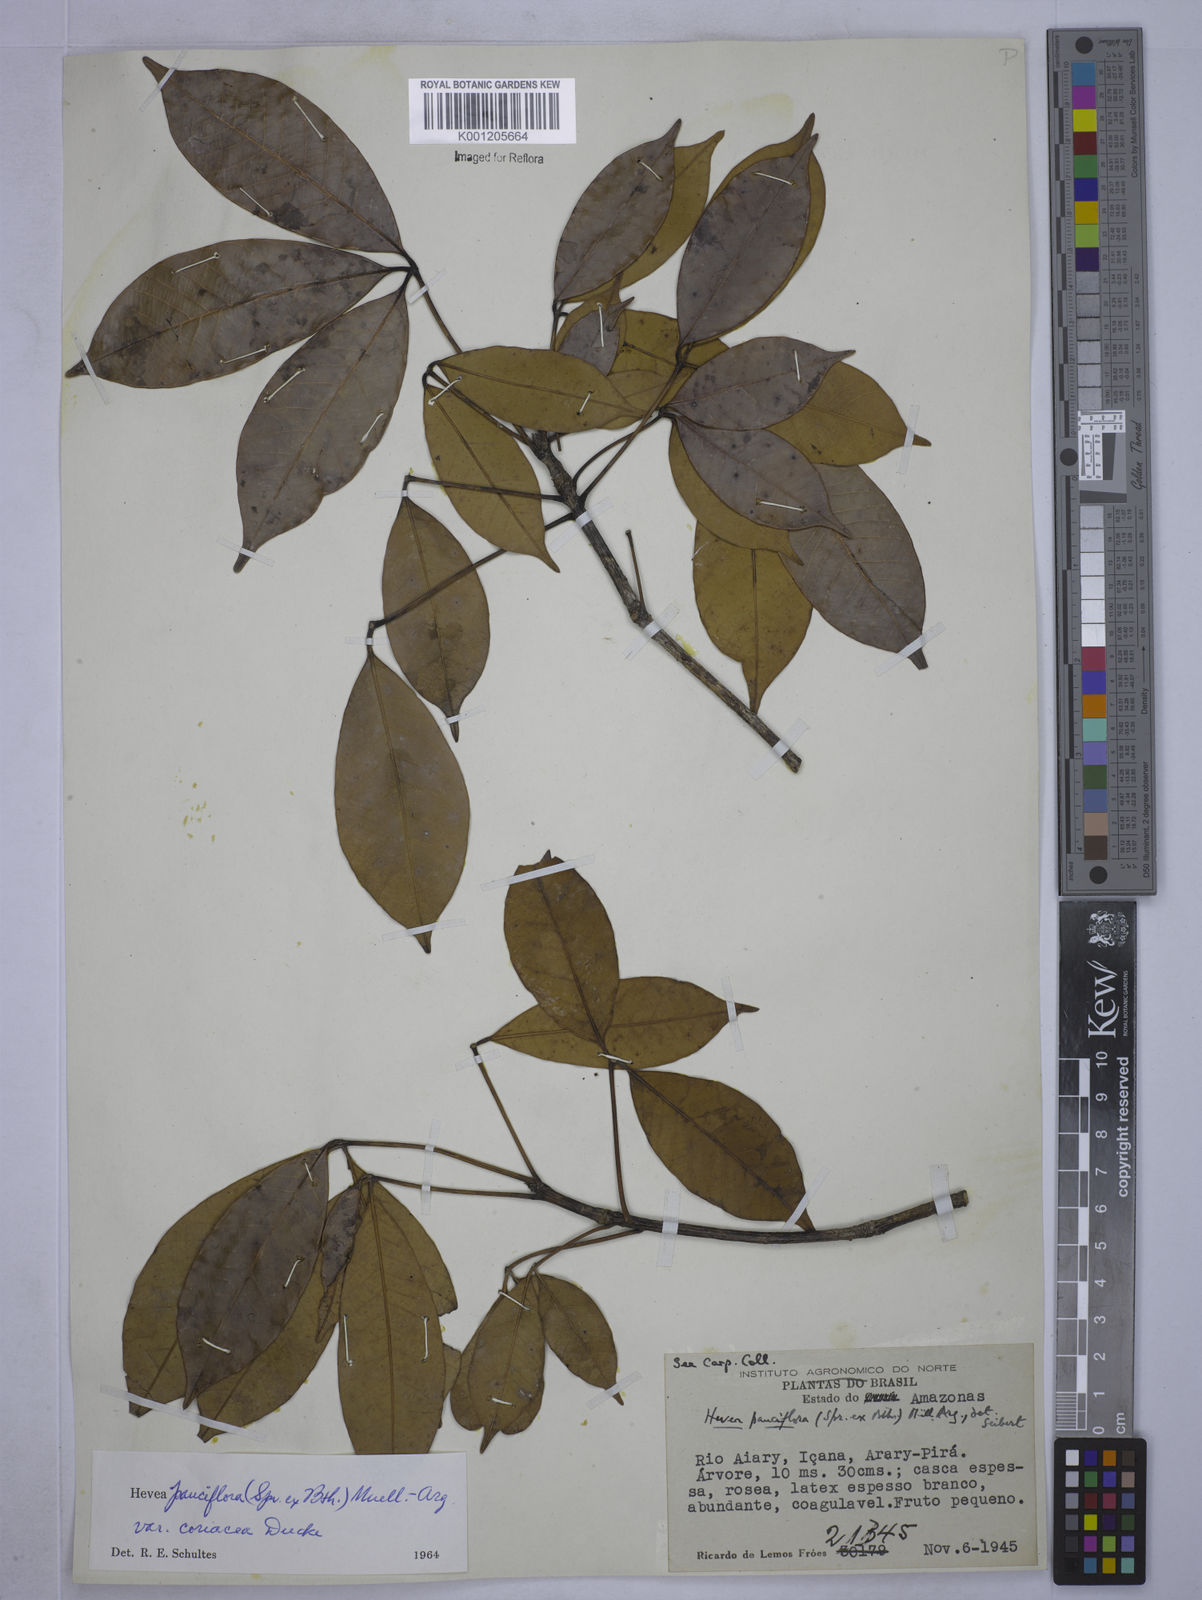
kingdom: Plantae
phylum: Tracheophyta
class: Magnoliopsida
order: Malpighiales
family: Euphorbiaceae
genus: Hevea
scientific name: Hevea pauciflora
